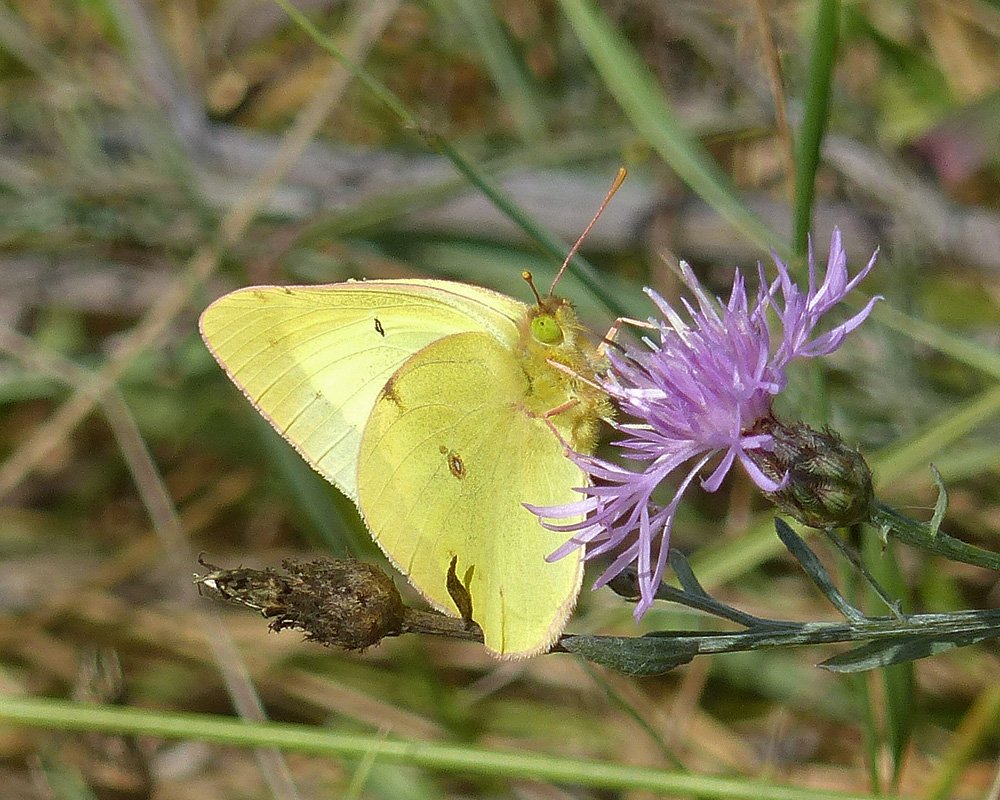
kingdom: Animalia
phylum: Arthropoda
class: Insecta
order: Lepidoptera
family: Pieridae
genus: Colias
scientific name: Colias eurytheme
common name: Orange Sulphur
